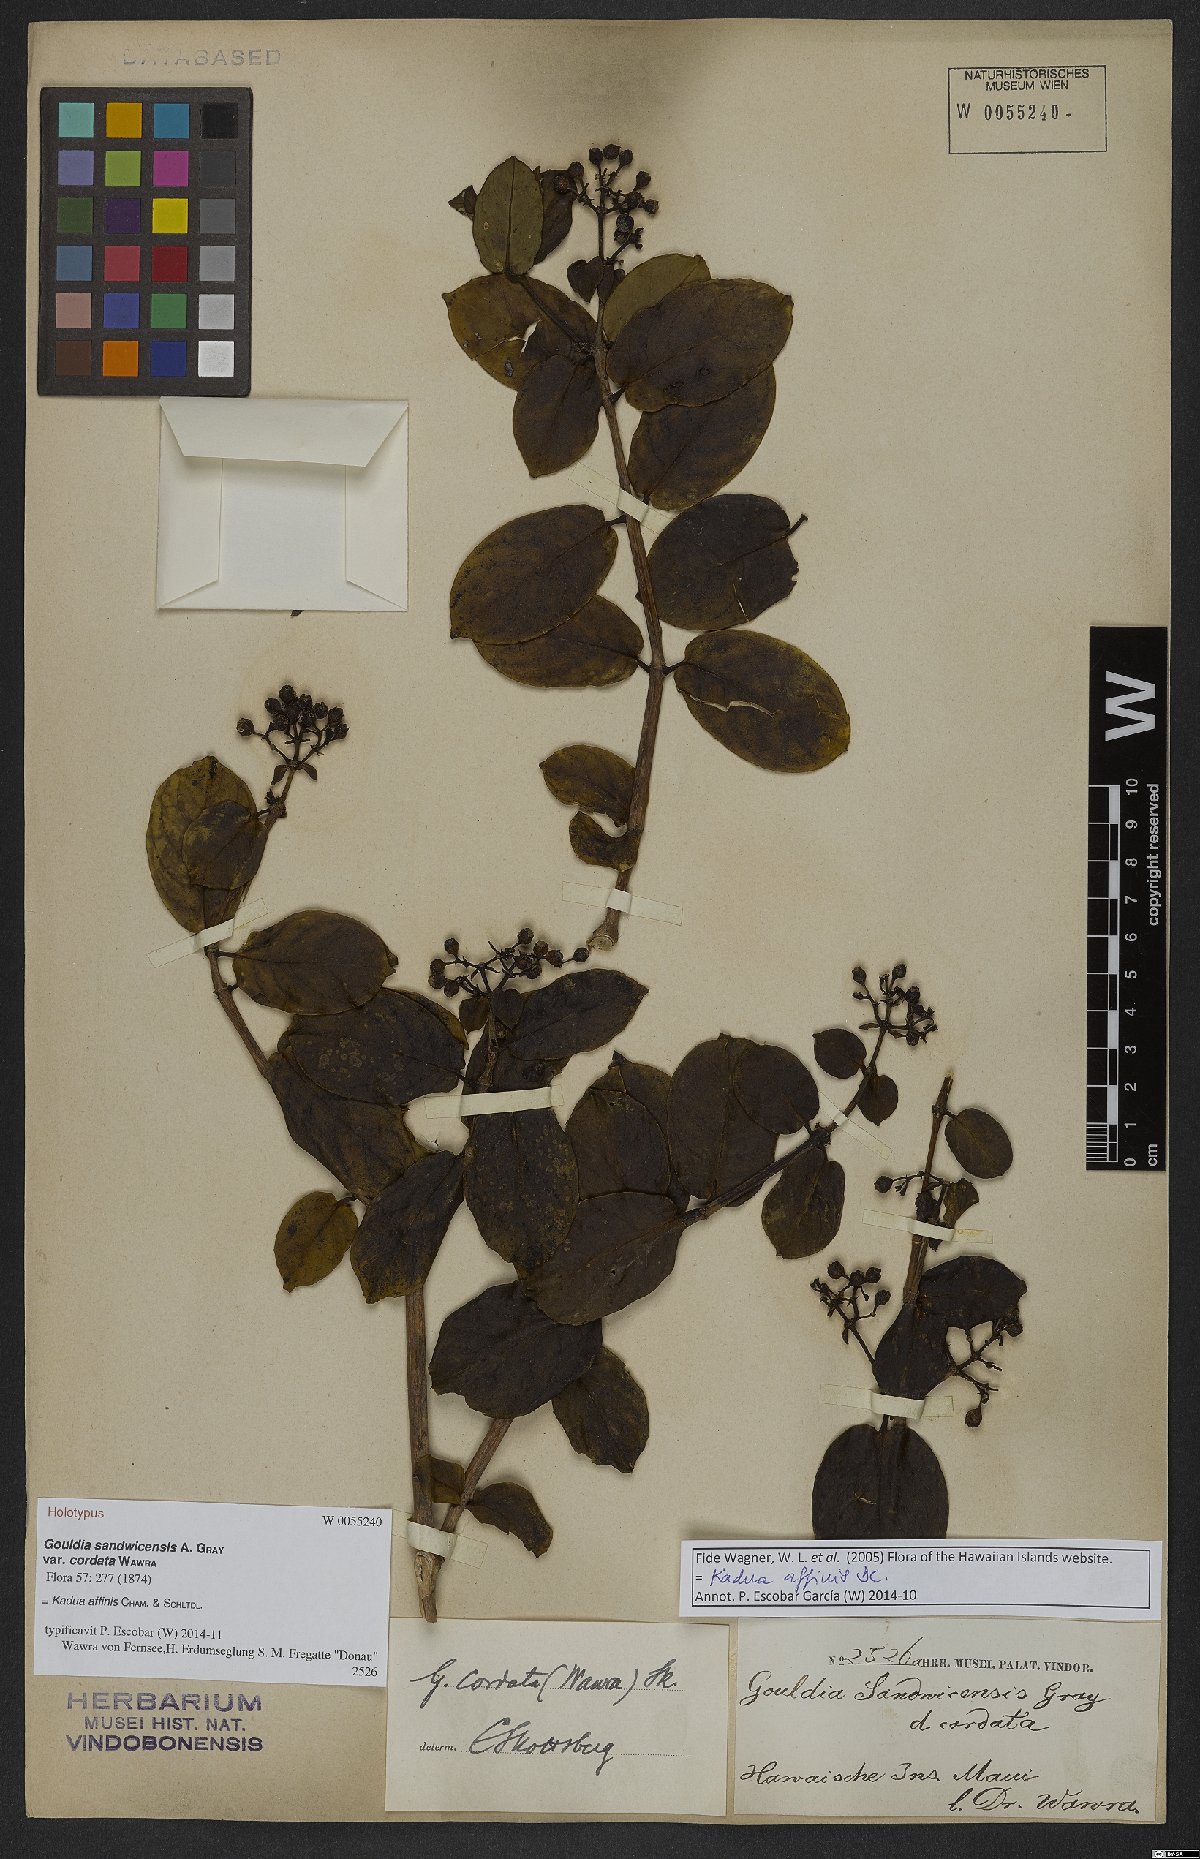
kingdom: Plantae
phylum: Tracheophyta
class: Magnoliopsida
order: Gentianales
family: Rubiaceae
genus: Kadua
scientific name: Kadua affinis
